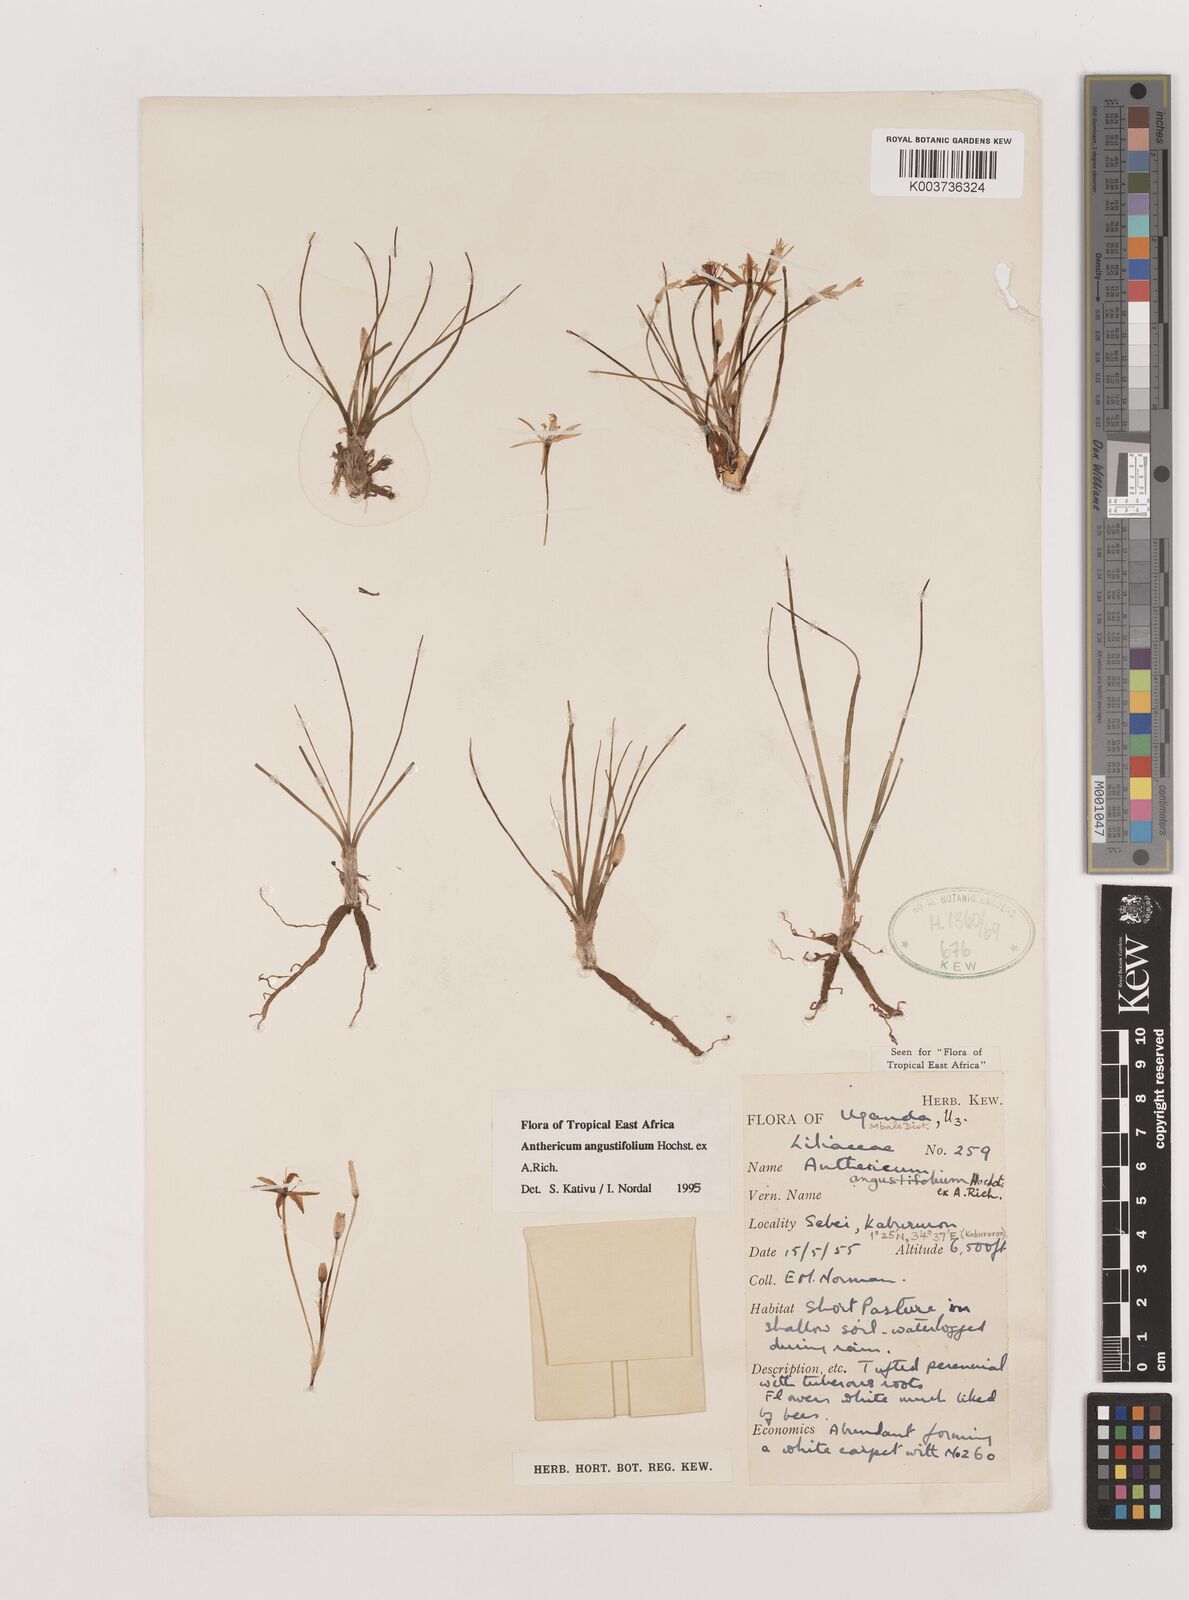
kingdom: Plantae
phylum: Tracheophyta
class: Liliopsida
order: Asparagales
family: Asparagaceae
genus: Anthericum
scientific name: Anthericum angustifolium
